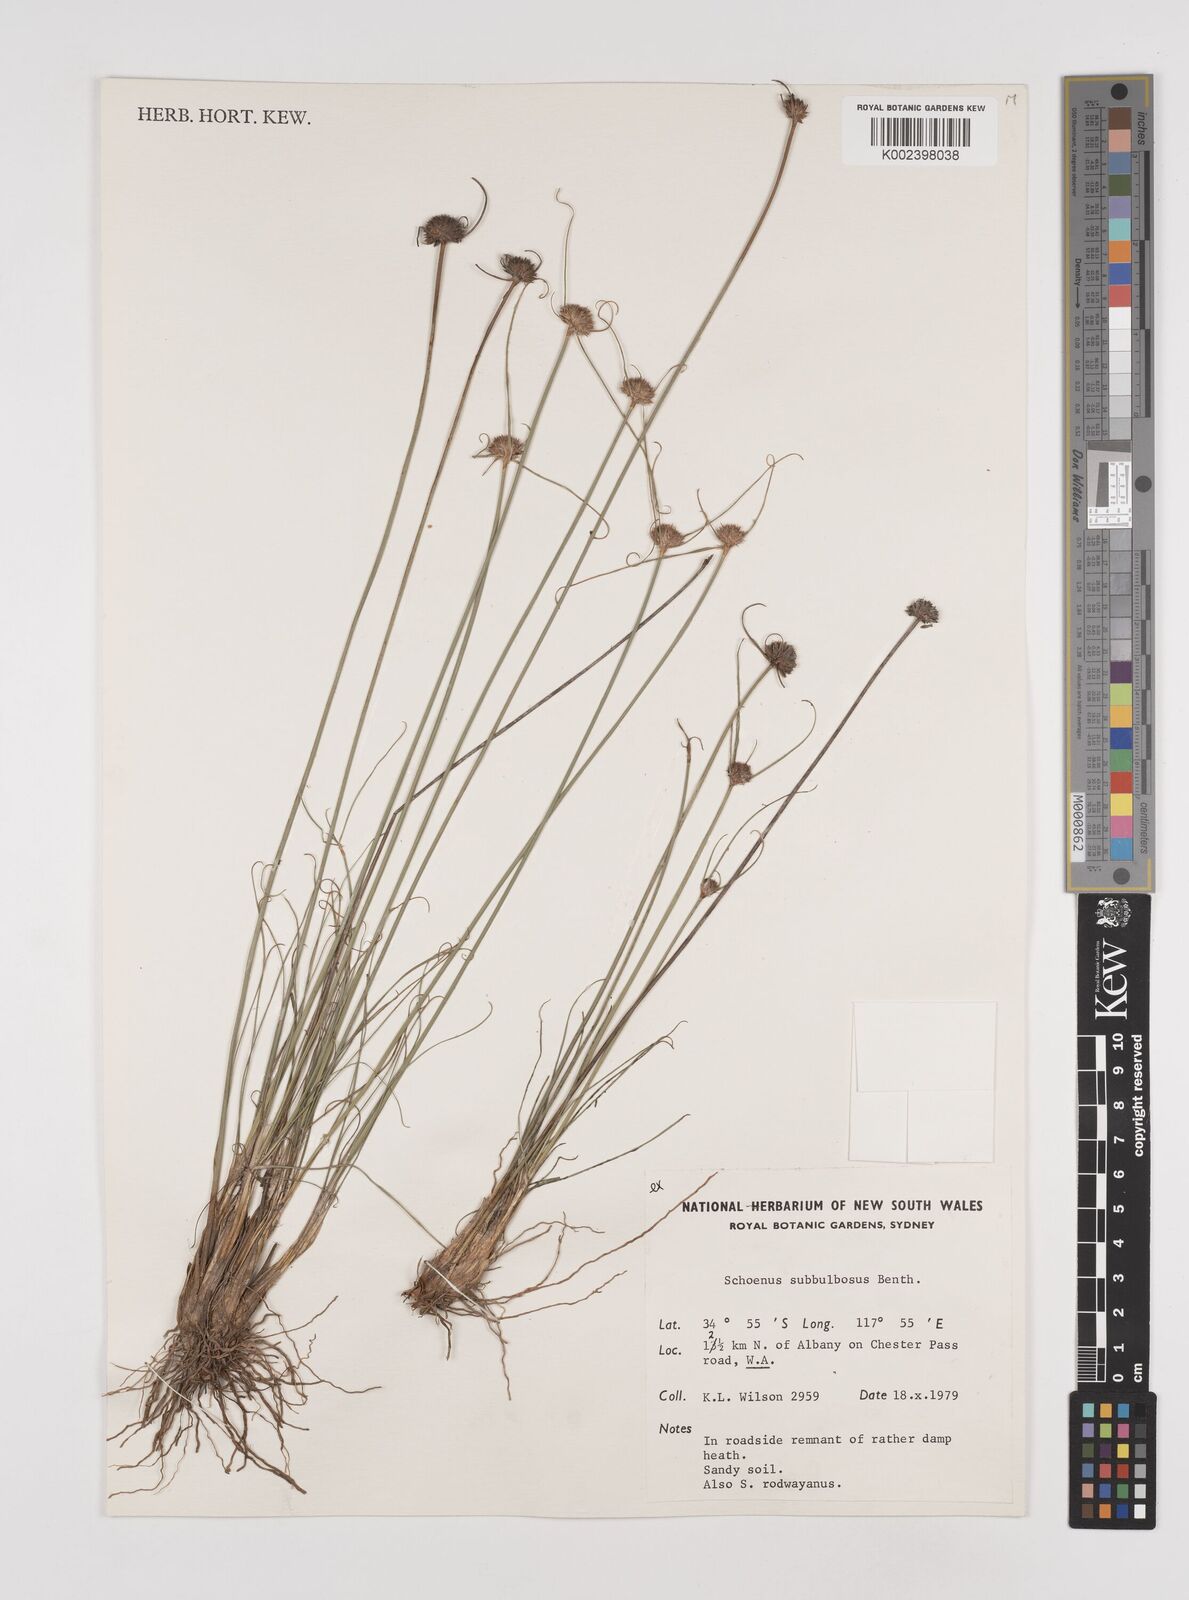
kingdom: Plantae
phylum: Tracheophyta
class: Liliopsida
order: Poales
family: Cyperaceae
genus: Cyperus
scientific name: Cyperus brevifolius
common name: Globe kyllinga
